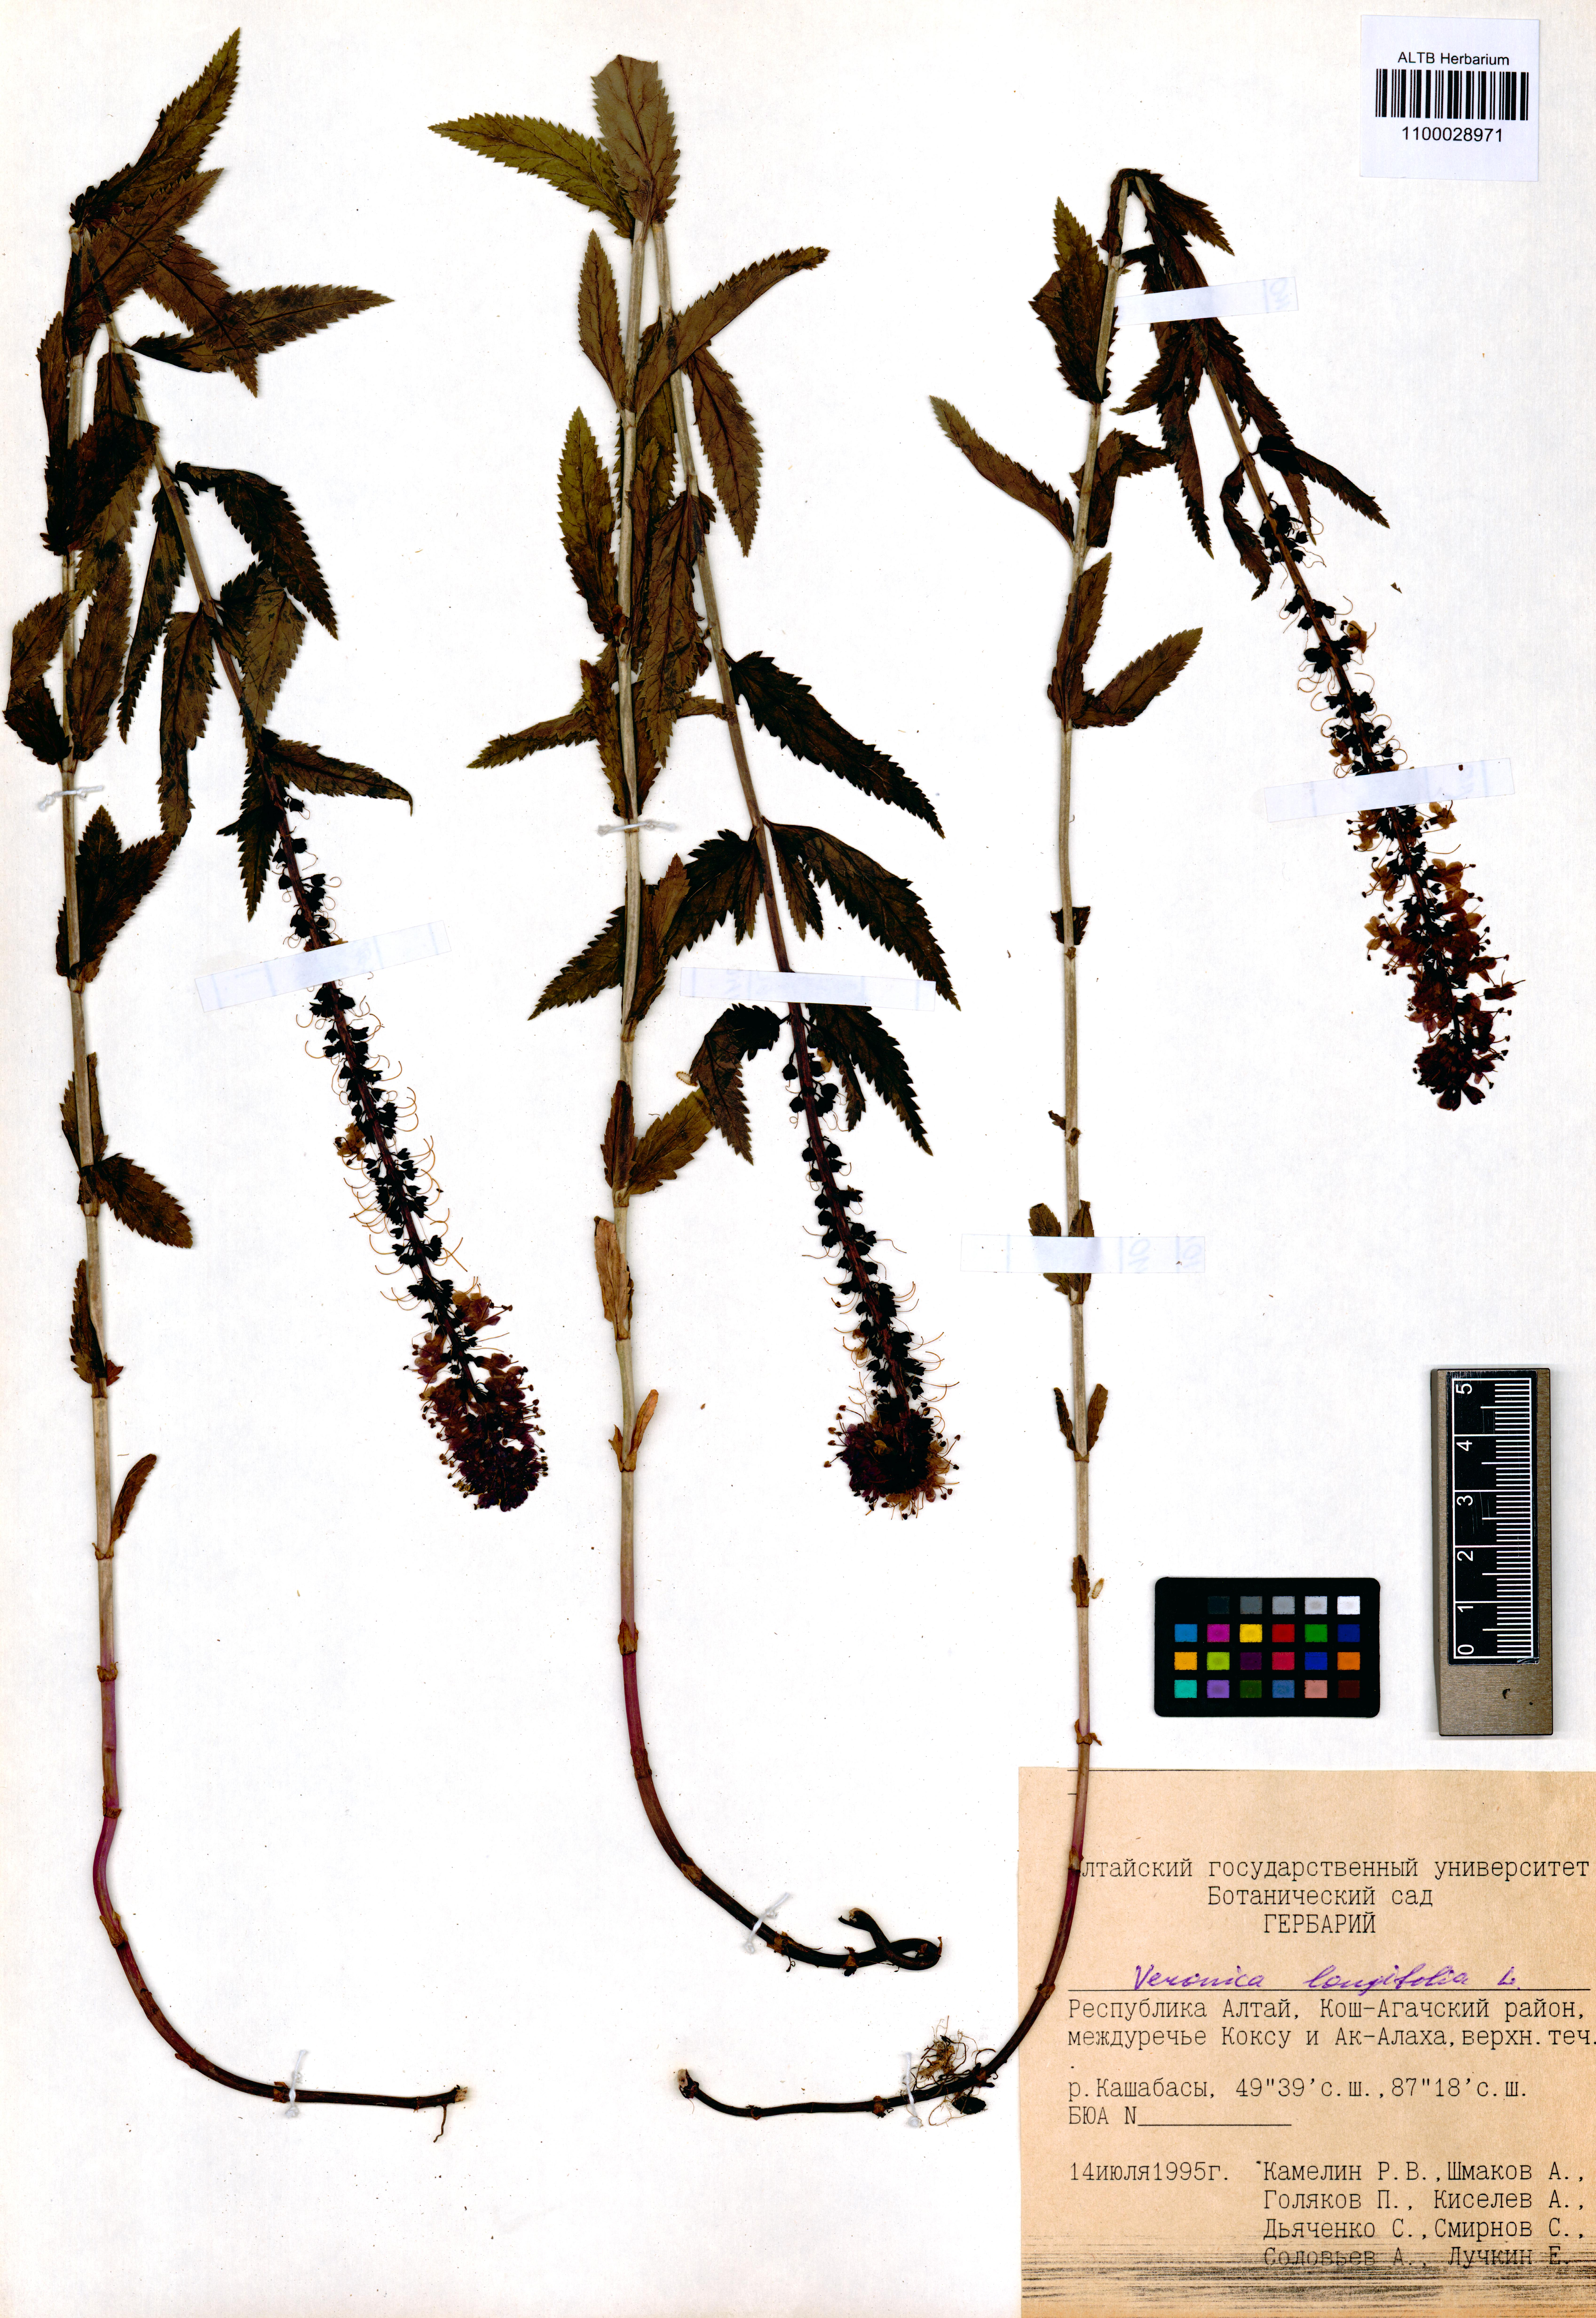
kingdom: Plantae
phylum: Tracheophyta
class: Magnoliopsida
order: Lamiales
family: Plantaginaceae
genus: Veronica
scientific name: Veronica longifolia
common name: Garden speedwell
